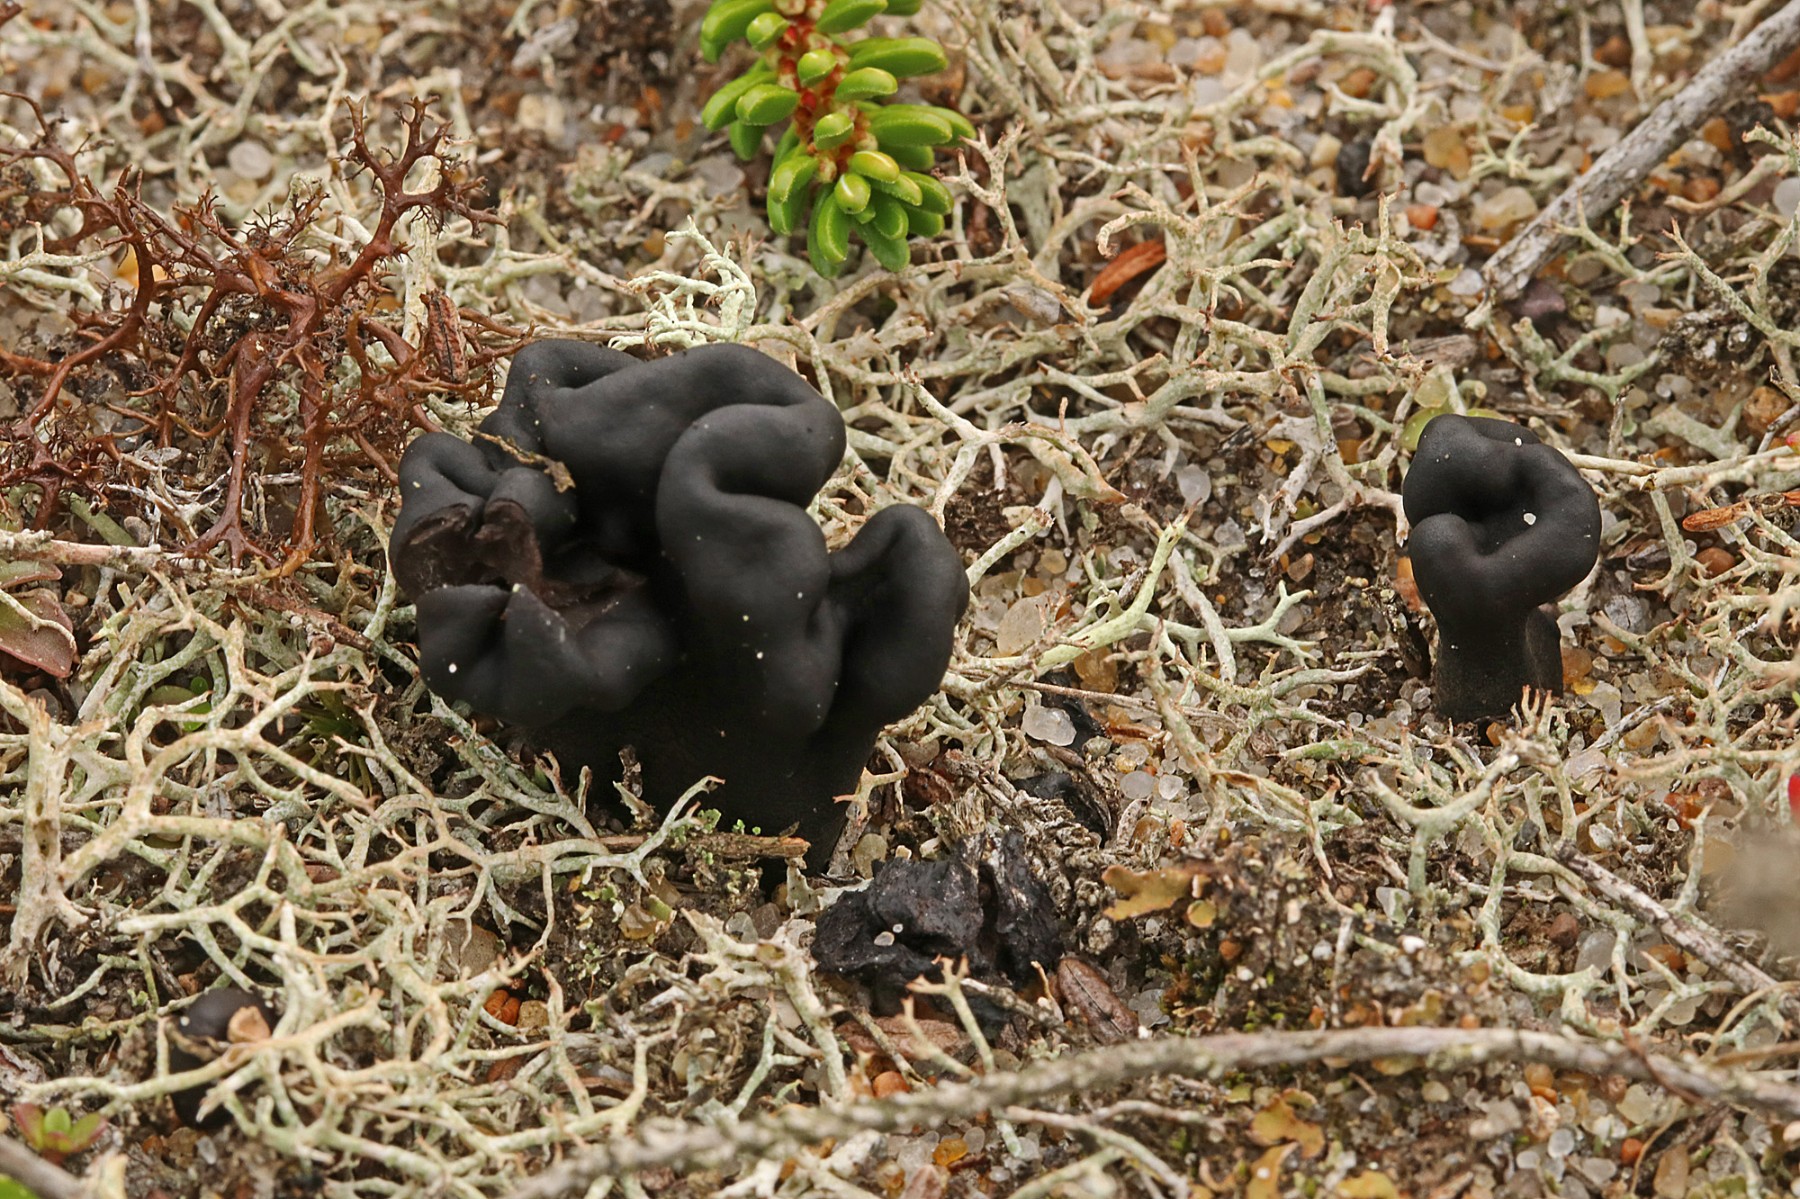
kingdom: Fungi
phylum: Ascomycota
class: Geoglossomycetes
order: Geoglossales
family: Geoglossaceae
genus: Sabuloglossum
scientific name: Sabuloglossum arenarium
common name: klit-jordtunge
